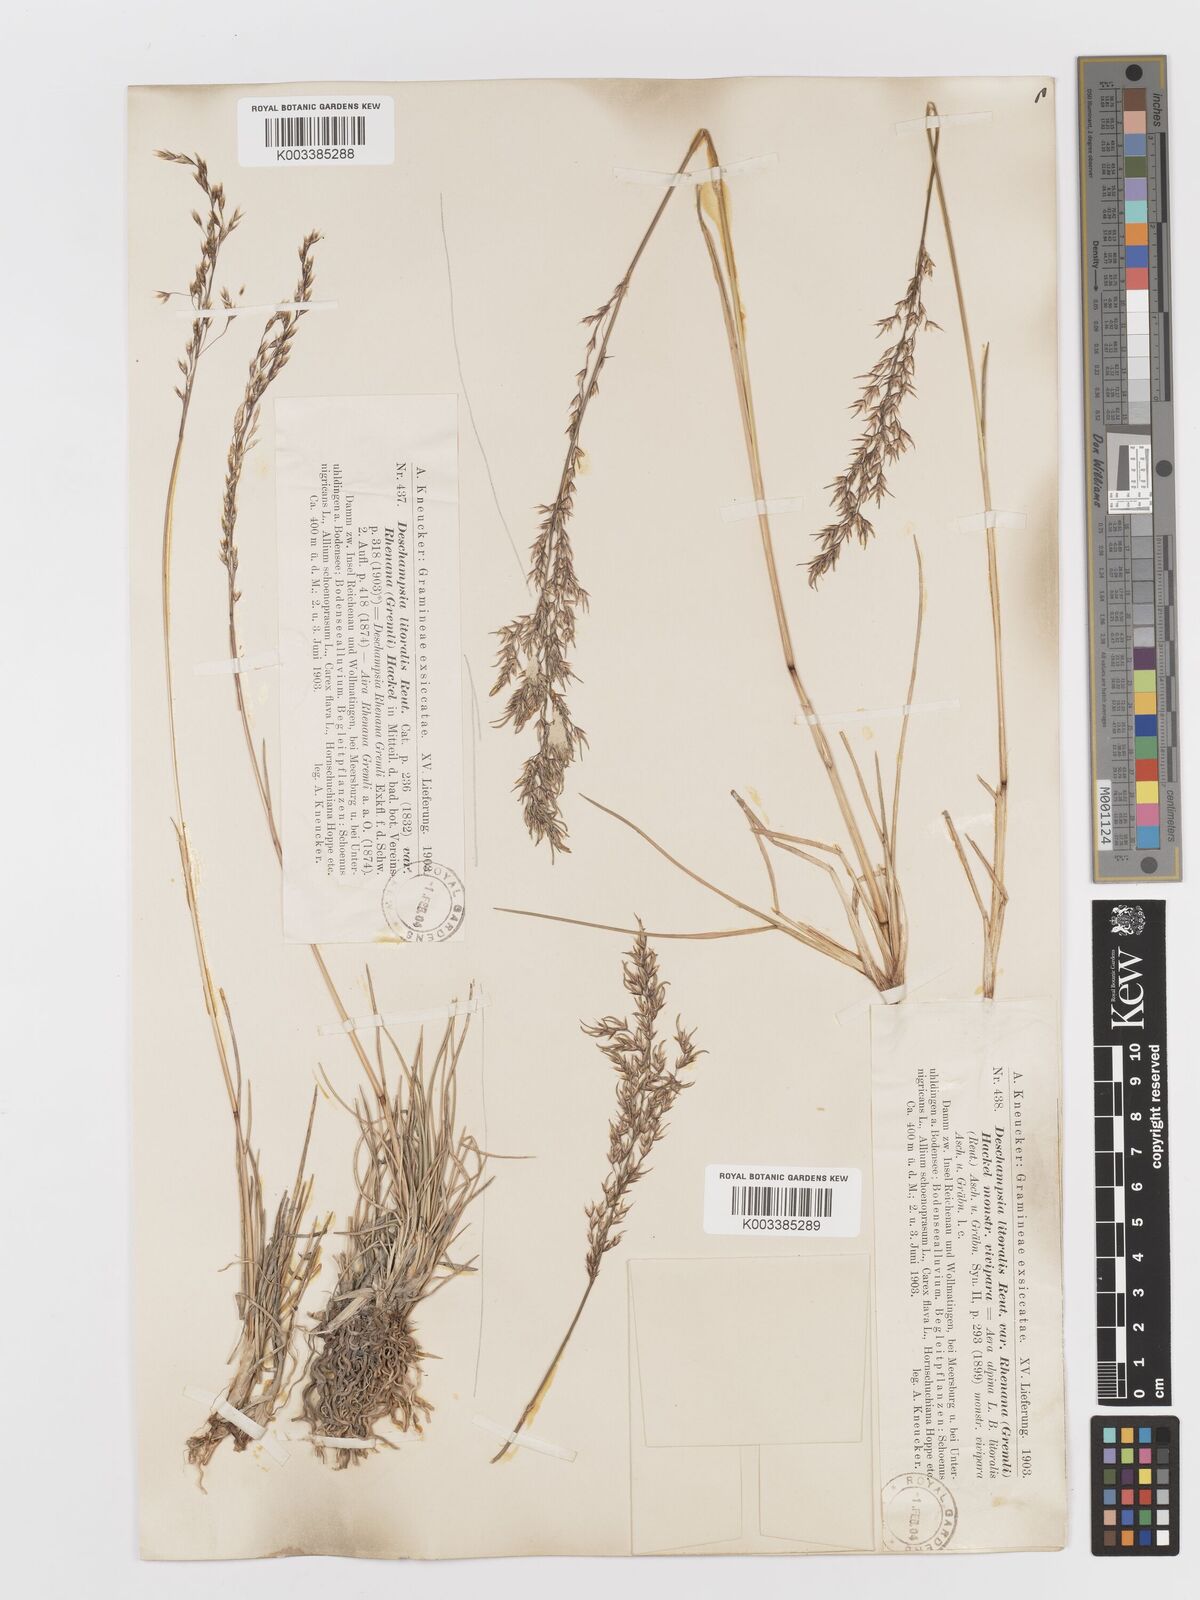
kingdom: Plantae
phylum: Tracheophyta
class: Liliopsida
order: Poales
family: Poaceae
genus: Deschampsia
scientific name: Deschampsia cespitosa
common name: Tufted hair-grass
